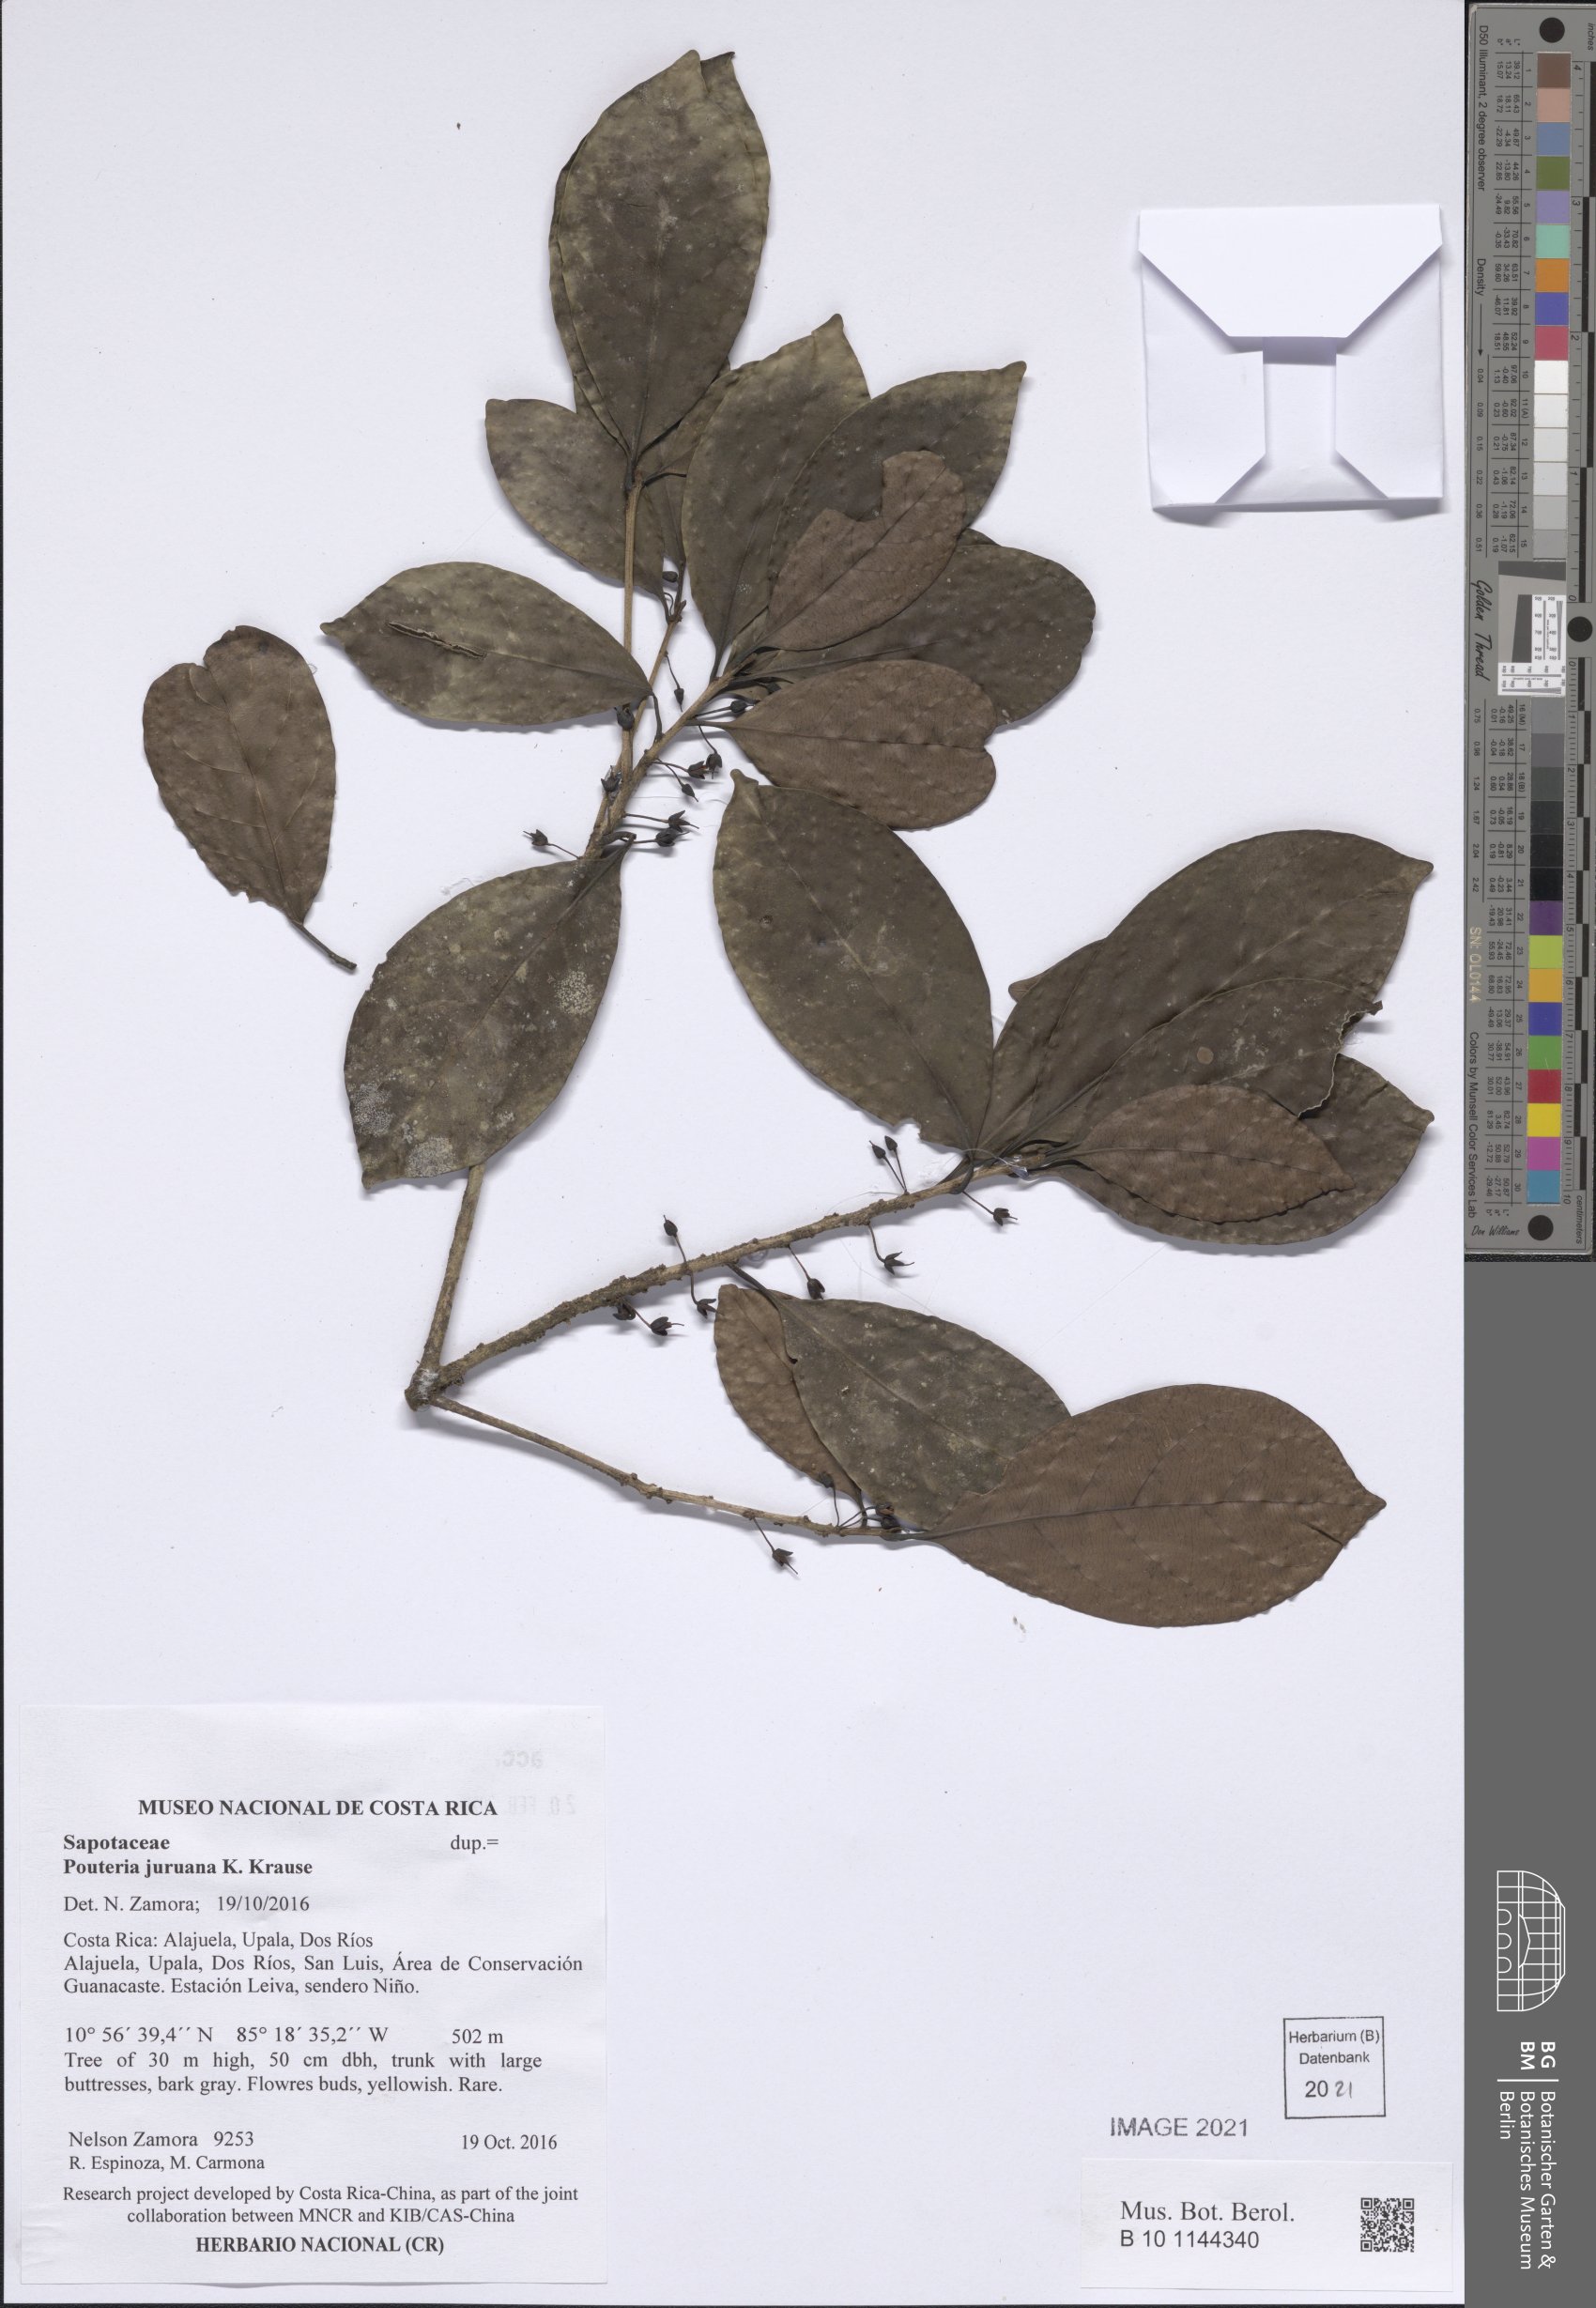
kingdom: Plantae
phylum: Tracheophyta
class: Magnoliopsida
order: Ericales
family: Sapotaceae
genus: Pouteria
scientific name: Pouteria juruana
